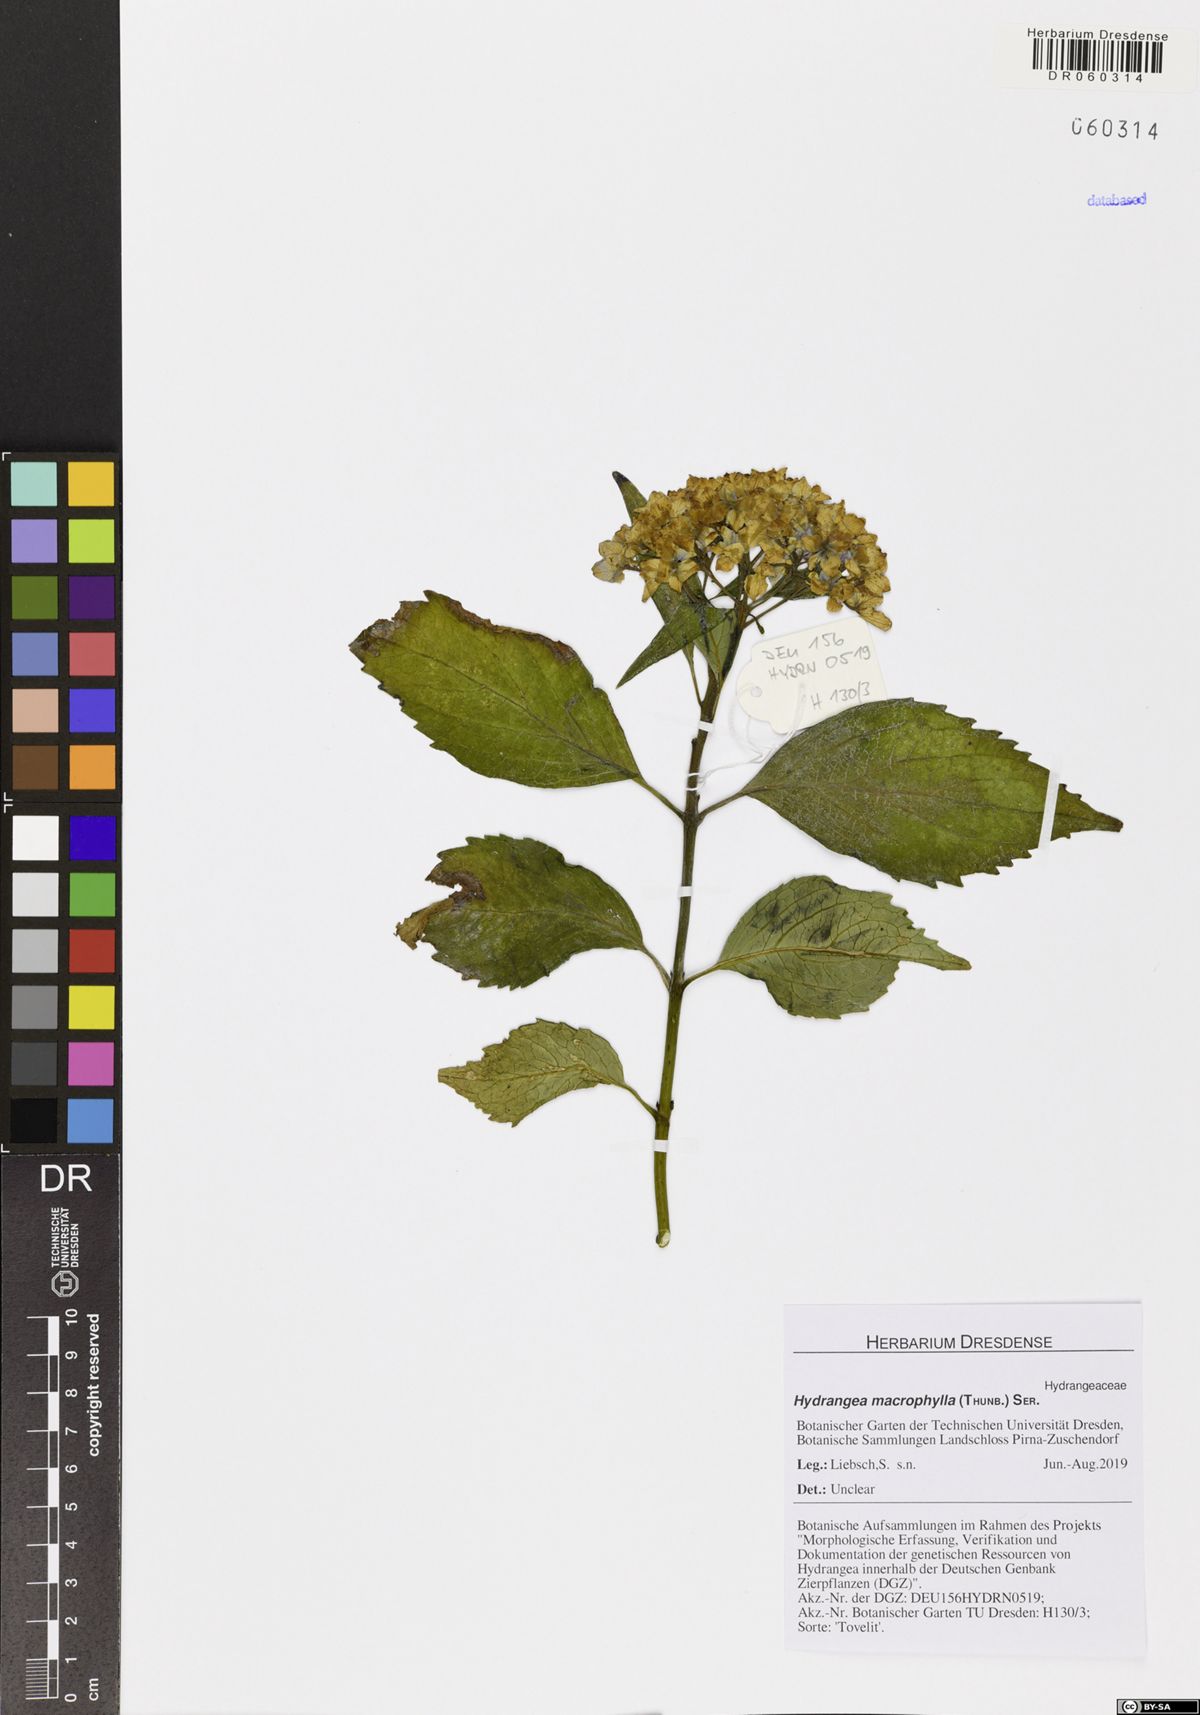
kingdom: Plantae
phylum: Tracheophyta
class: Magnoliopsida
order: Cornales
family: Hydrangeaceae
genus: Hydrangea
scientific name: Hydrangea macrophylla
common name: Hydrangea
